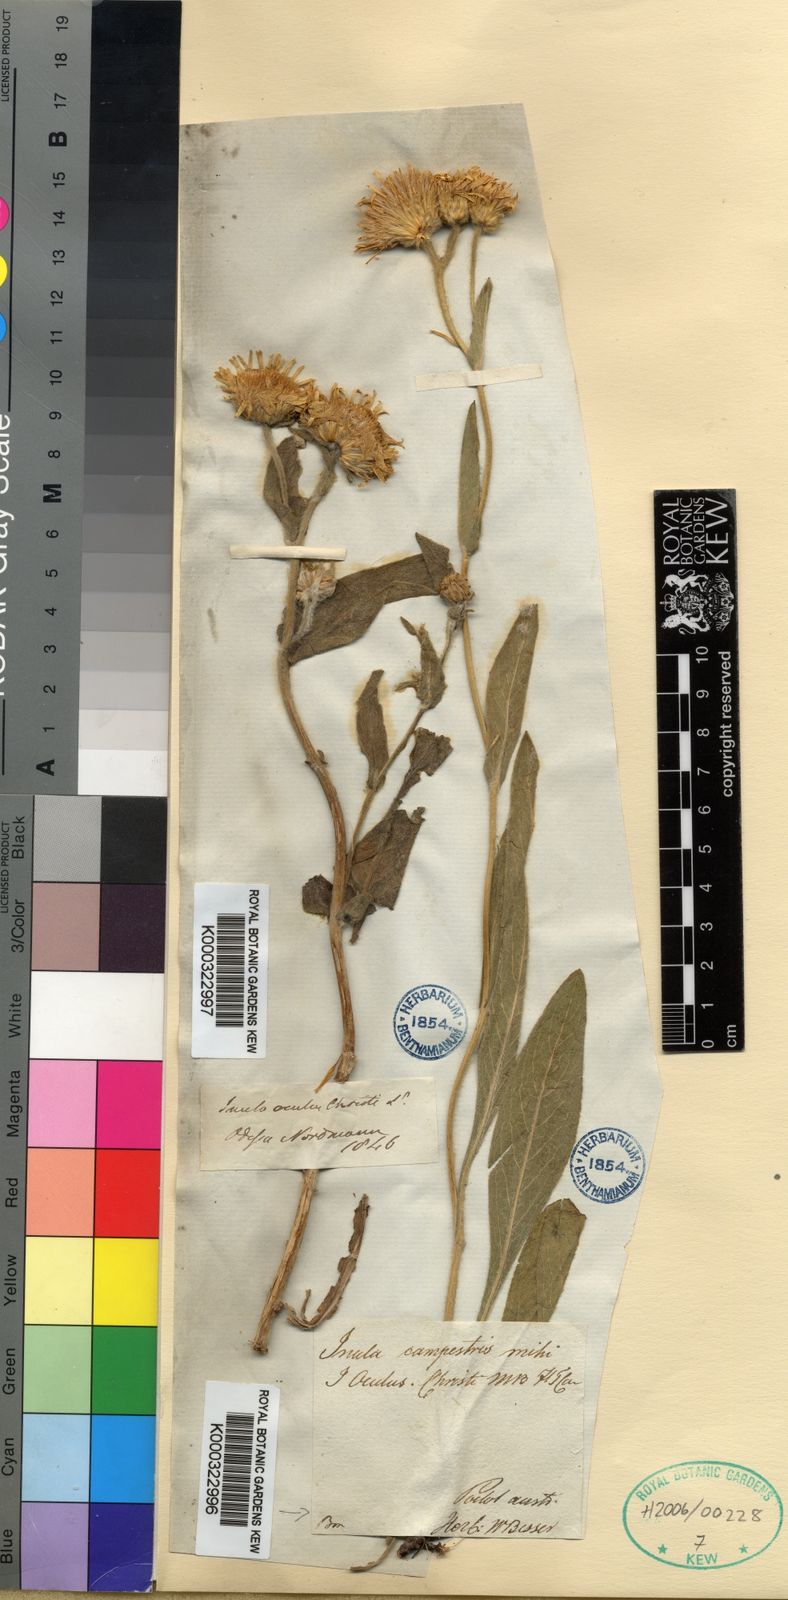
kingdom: Plantae
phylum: Tracheophyta
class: Magnoliopsida
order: Asterales
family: Asteraceae
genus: Inula
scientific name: Inula
